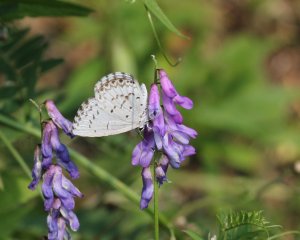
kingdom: Animalia
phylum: Arthropoda
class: Insecta
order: Lepidoptera
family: Lycaenidae
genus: Cyaniris
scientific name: Cyaniris neglecta
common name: Summer Azure
